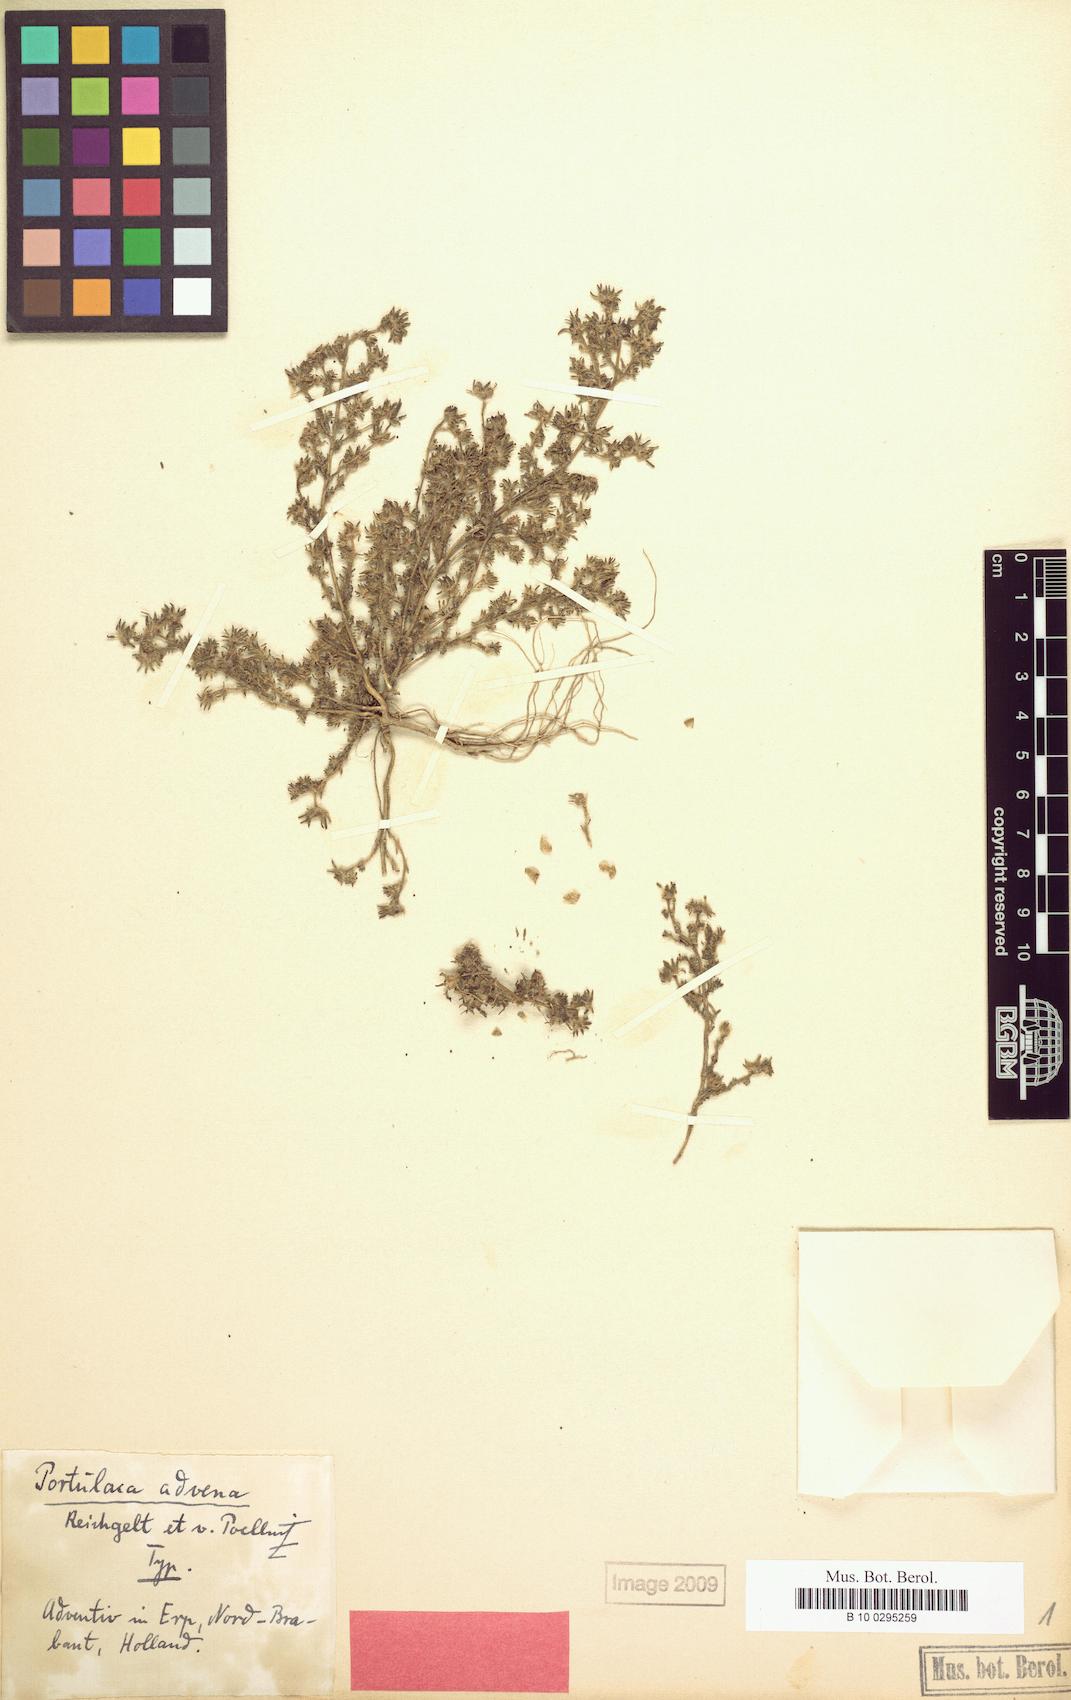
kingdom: Plantae
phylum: Tracheophyta
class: Magnoliopsida
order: Caryophyllales
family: Portulacaceae
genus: Portulaca
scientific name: Portulaca pilosa
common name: Kiss me quick
